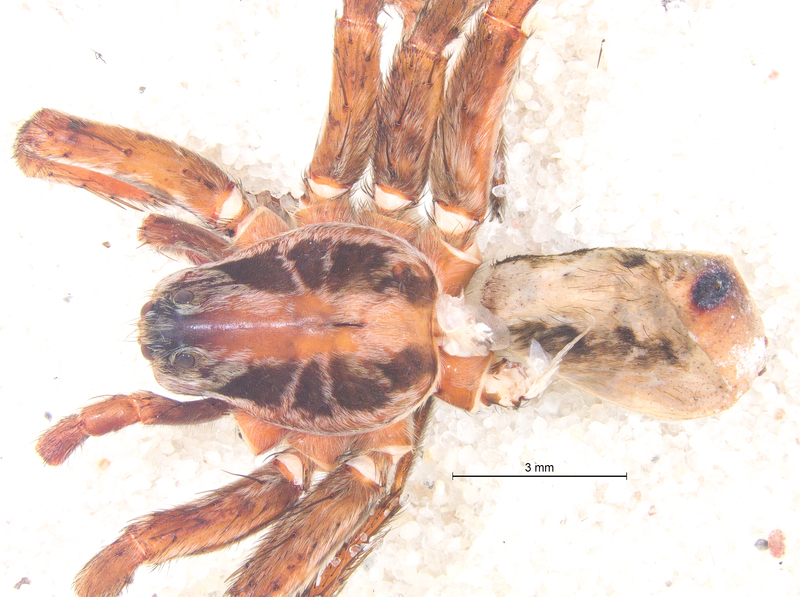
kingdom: Animalia
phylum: Arthropoda
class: Arachnida
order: Araneae
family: Lycosidae
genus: Alopecosa
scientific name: Alopecosa striatipes
